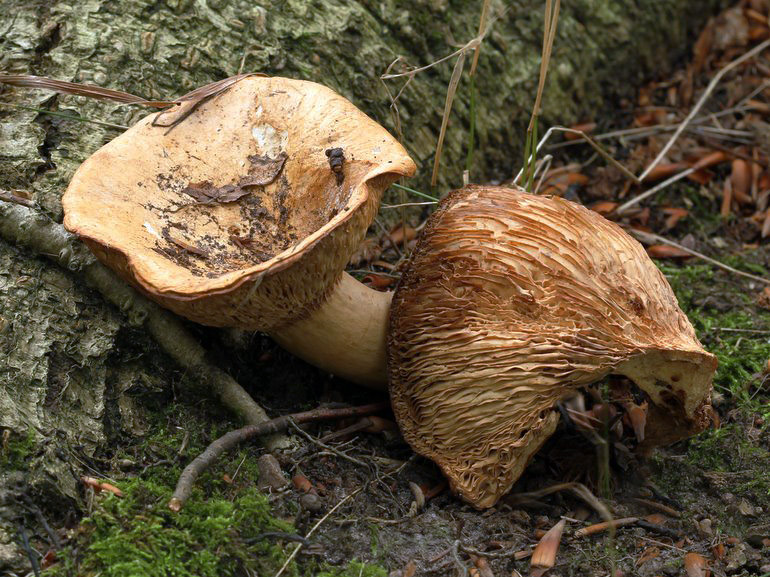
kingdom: Fungi
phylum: Basidiomycota
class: Agaricomycetes
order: Russulales
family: Russulaceae
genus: Lactarius
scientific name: Lactarius acerrimus
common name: brændende mælkehat
